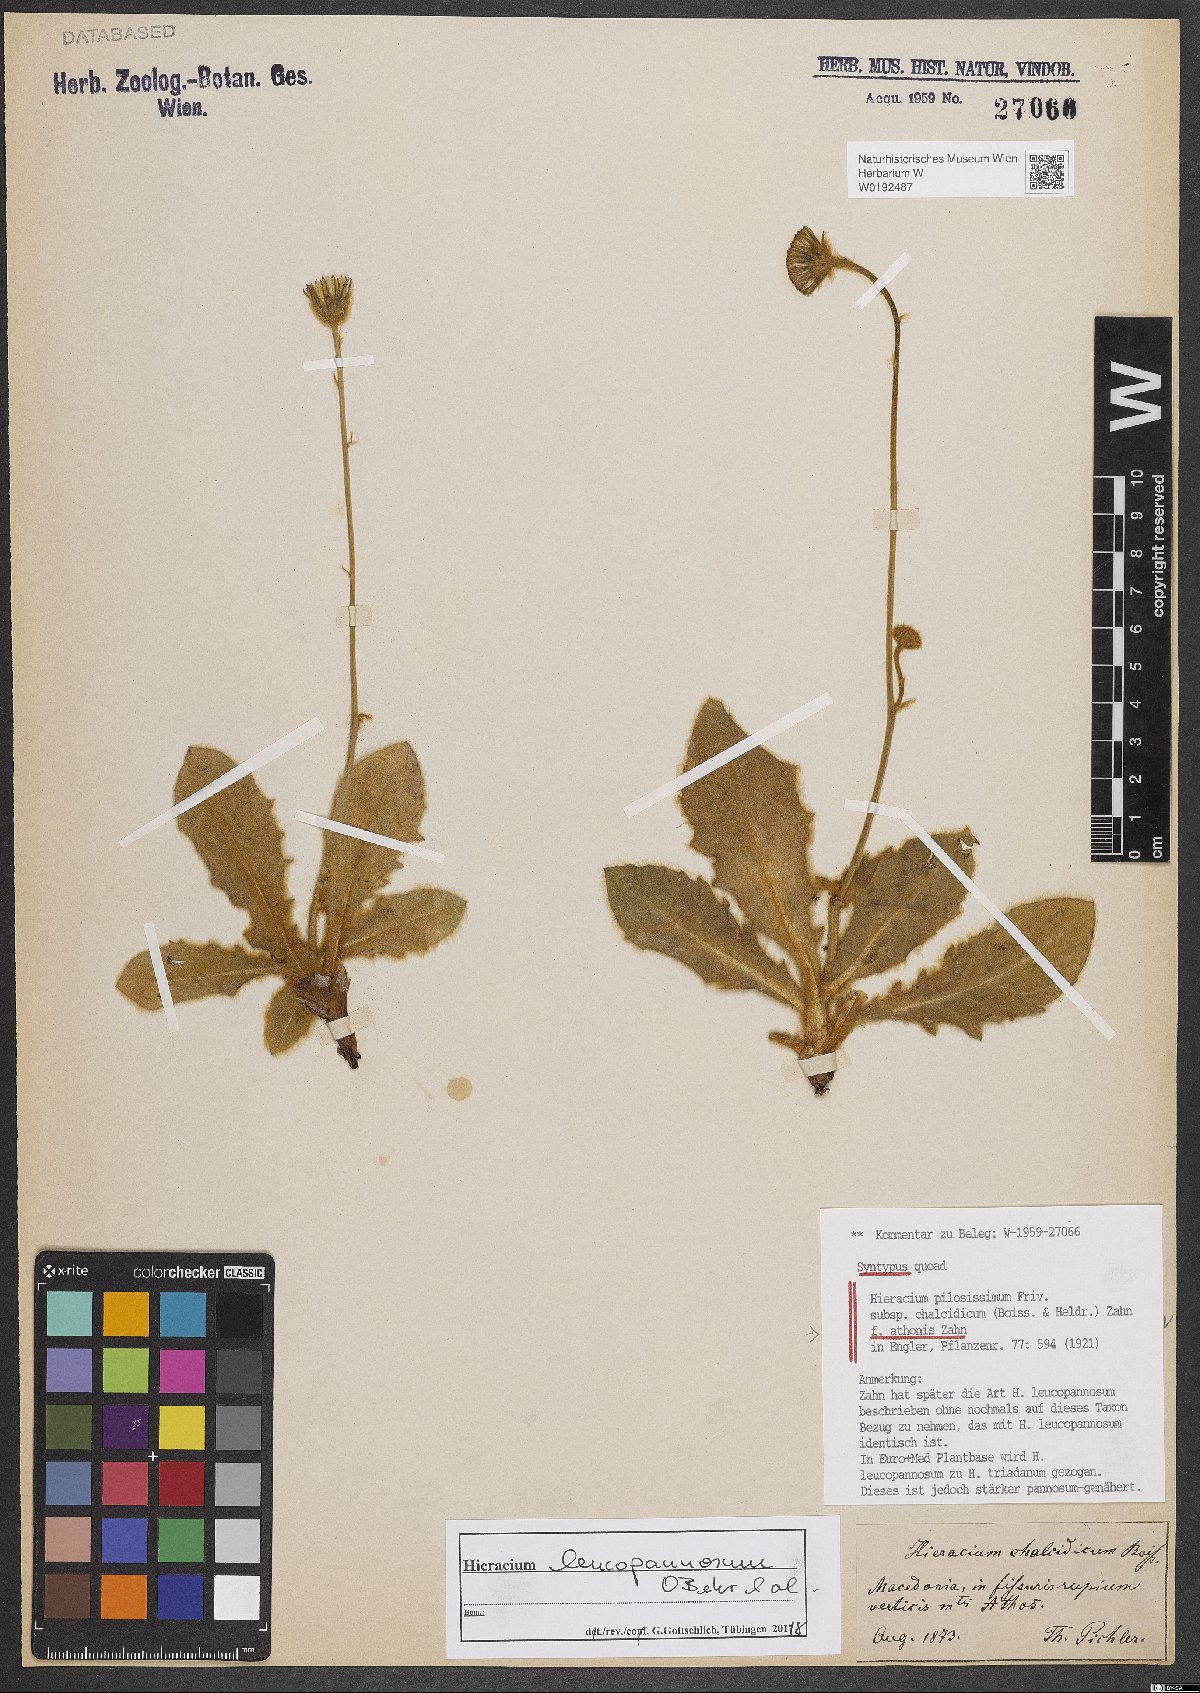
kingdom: Plantae
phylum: Tracheophyta
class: Magnoliopsida
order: Asterales
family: Asteraceae
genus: Hieracium
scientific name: Hieracium pilosissimum
